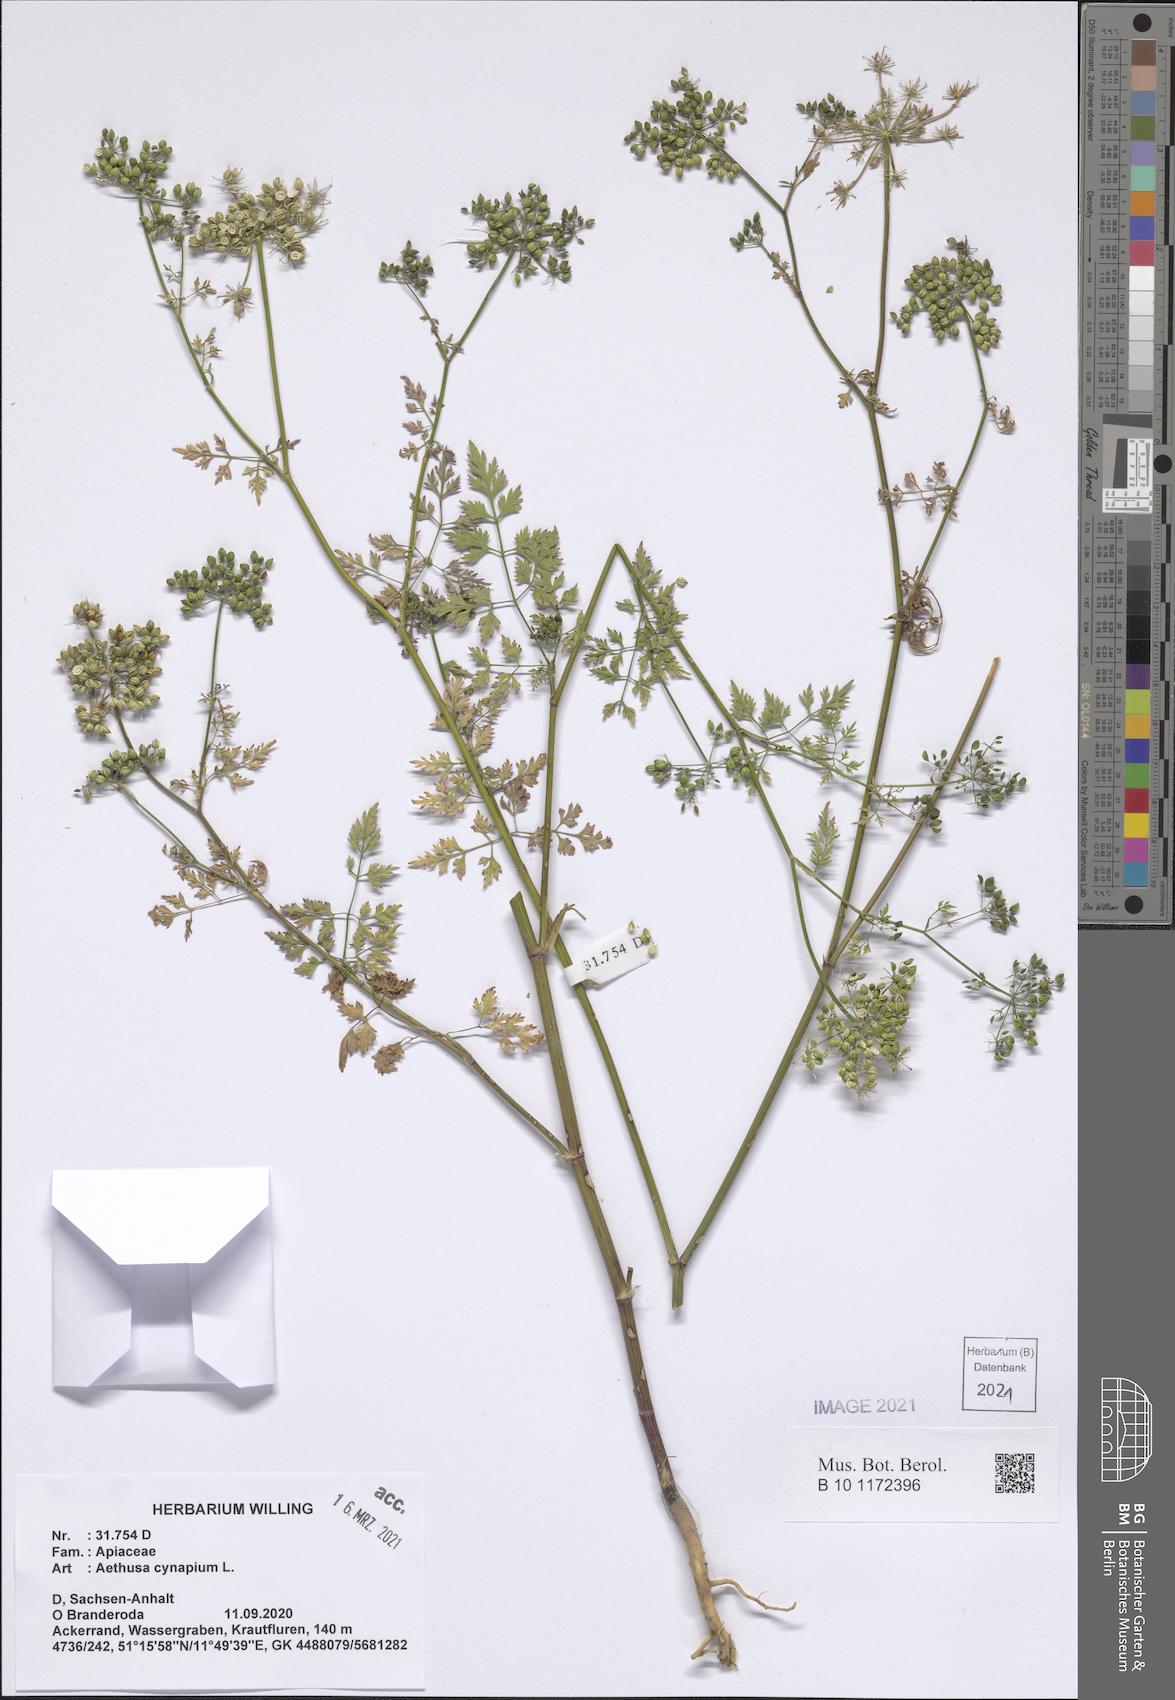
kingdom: Plantae
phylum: Tracheophyta
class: Magnoliopsida
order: Apiales
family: Apiaceae
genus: Aethusa
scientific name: Aethusa cynapium
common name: Fool's parsley
